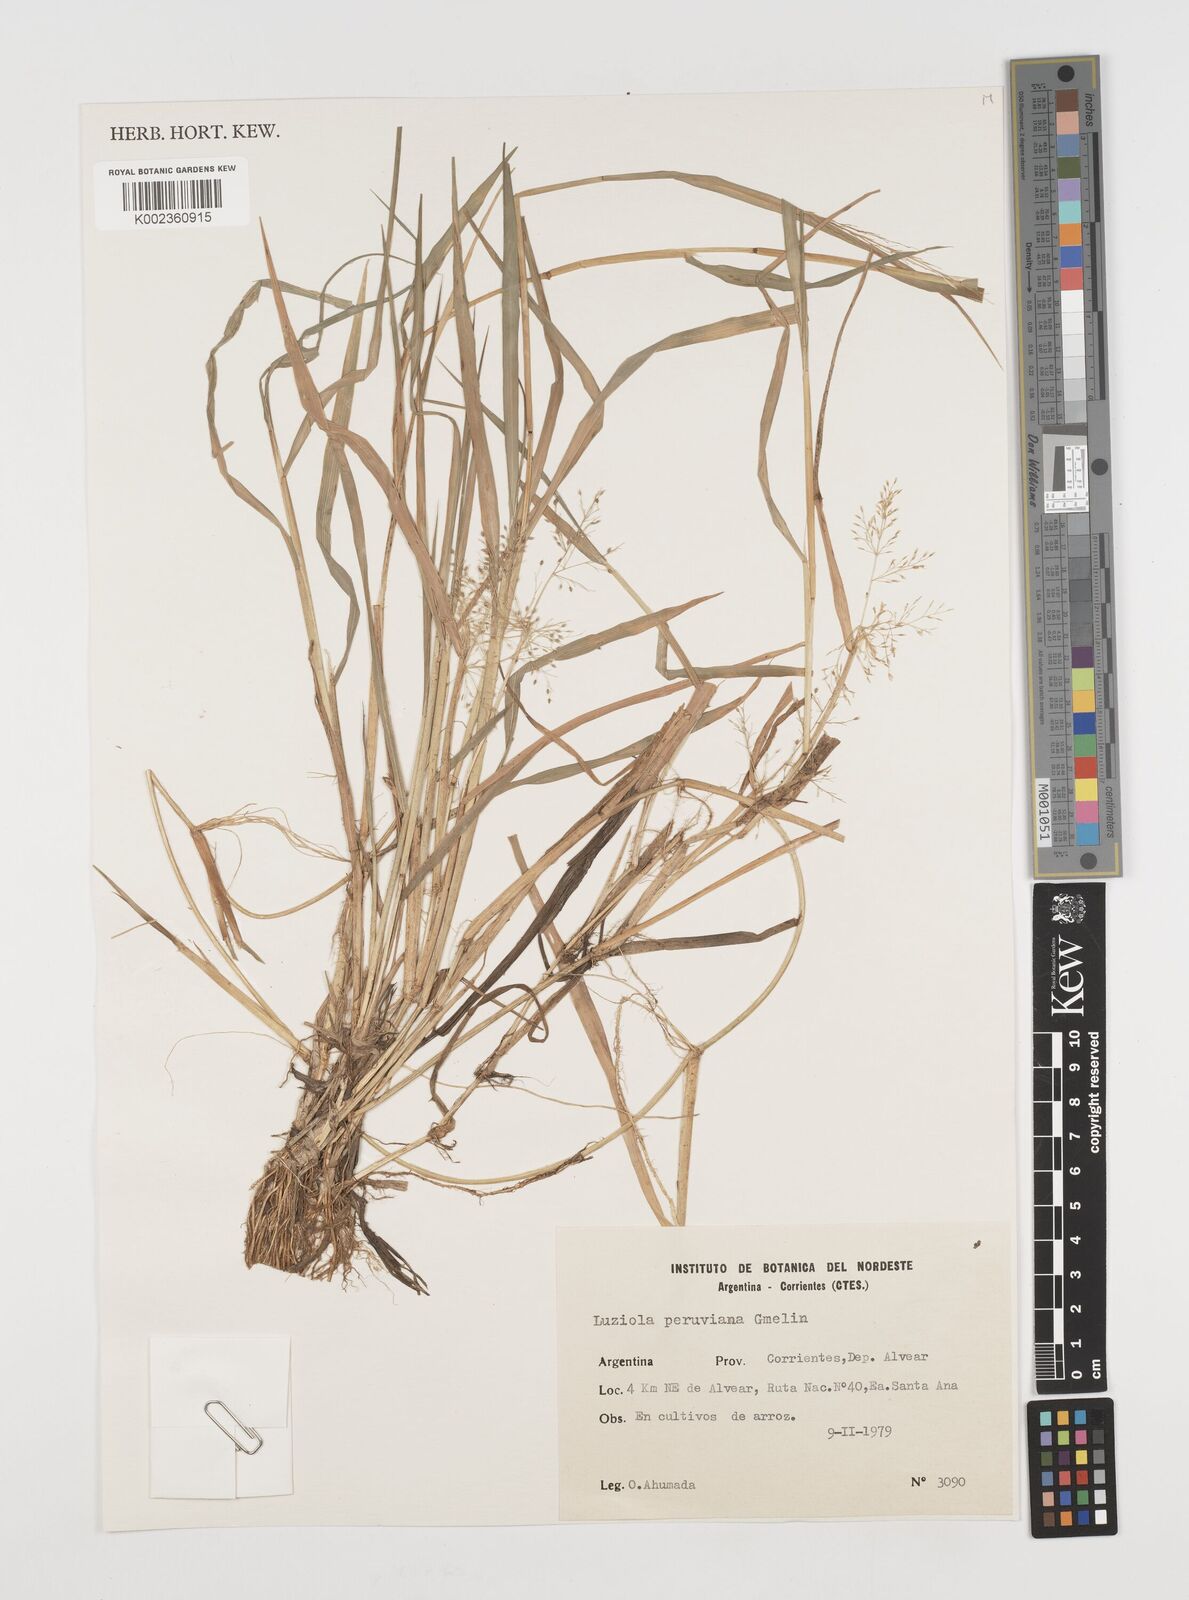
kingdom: Plantae
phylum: Tracheophyta
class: Liliopsida
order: Poales
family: Poaceae
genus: Luziola
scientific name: Luziola peruviana
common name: Peruvian watergrass
